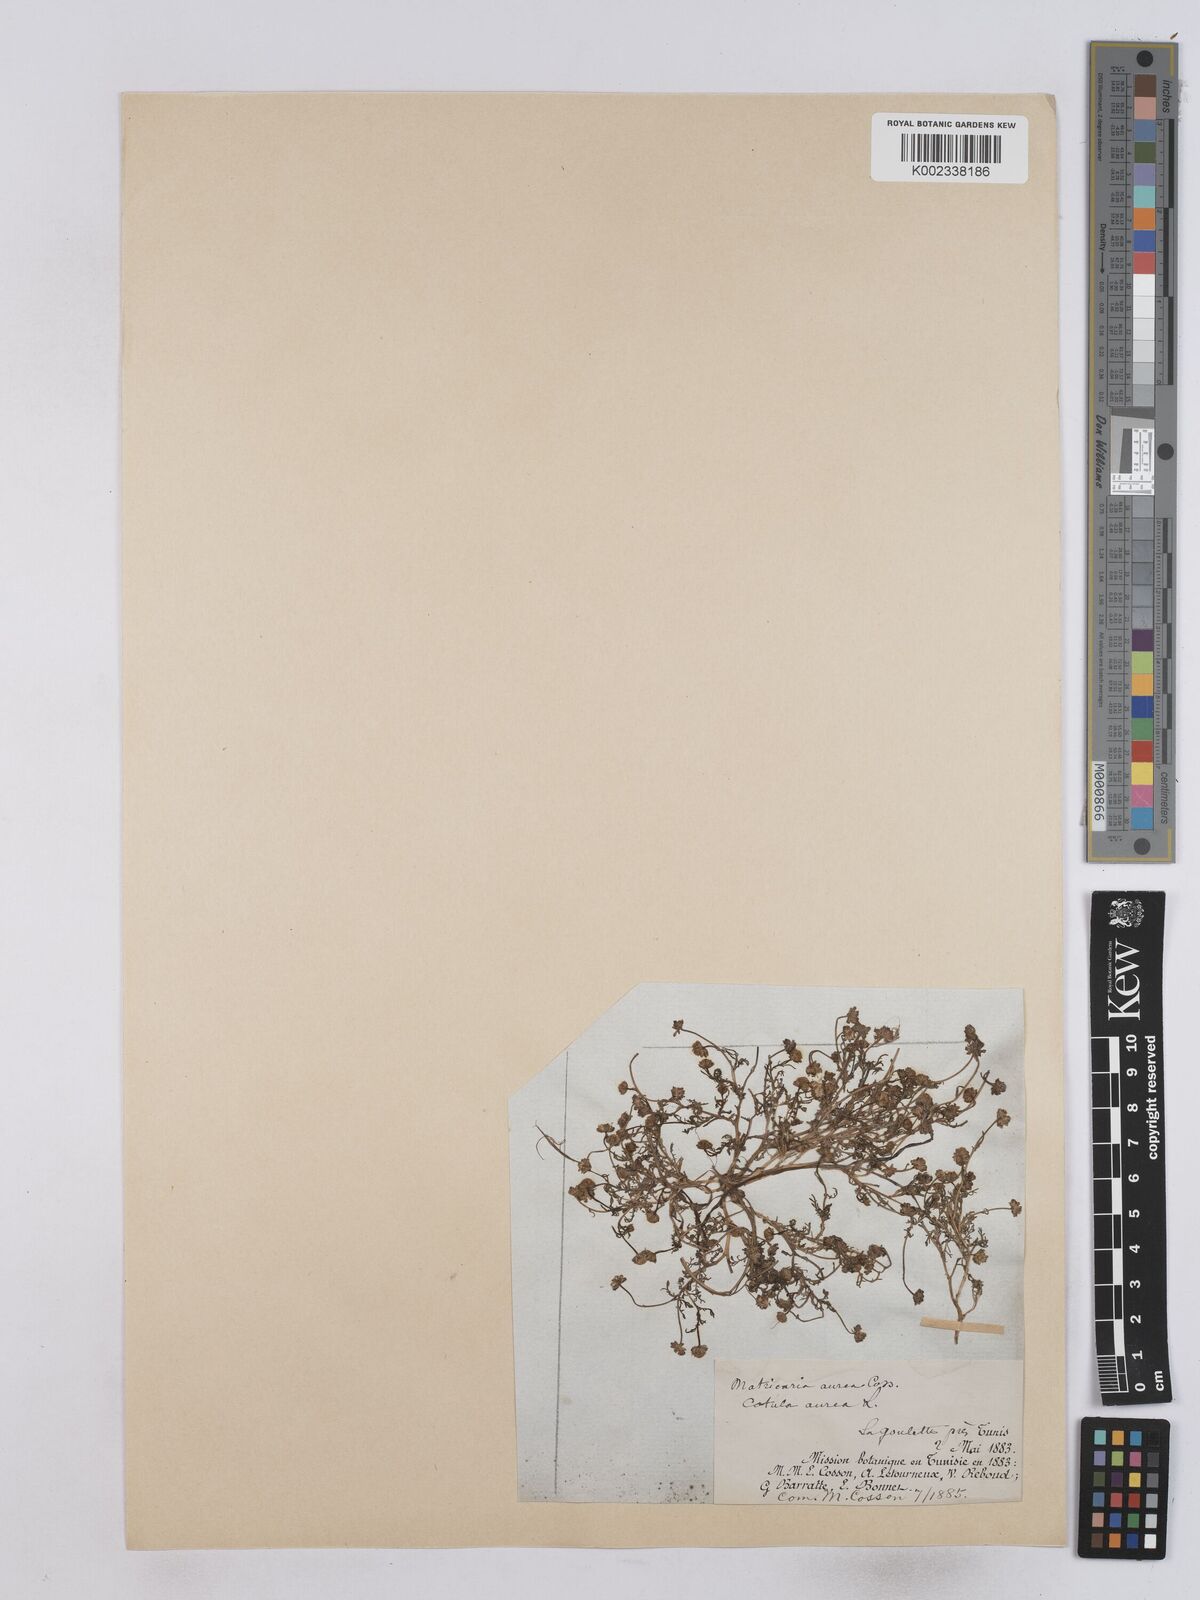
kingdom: Plantae
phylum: Tracheophyta
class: Magnoliopsida
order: Asterales
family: Asteraceae
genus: Matricaria
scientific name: Matricaria aurea
